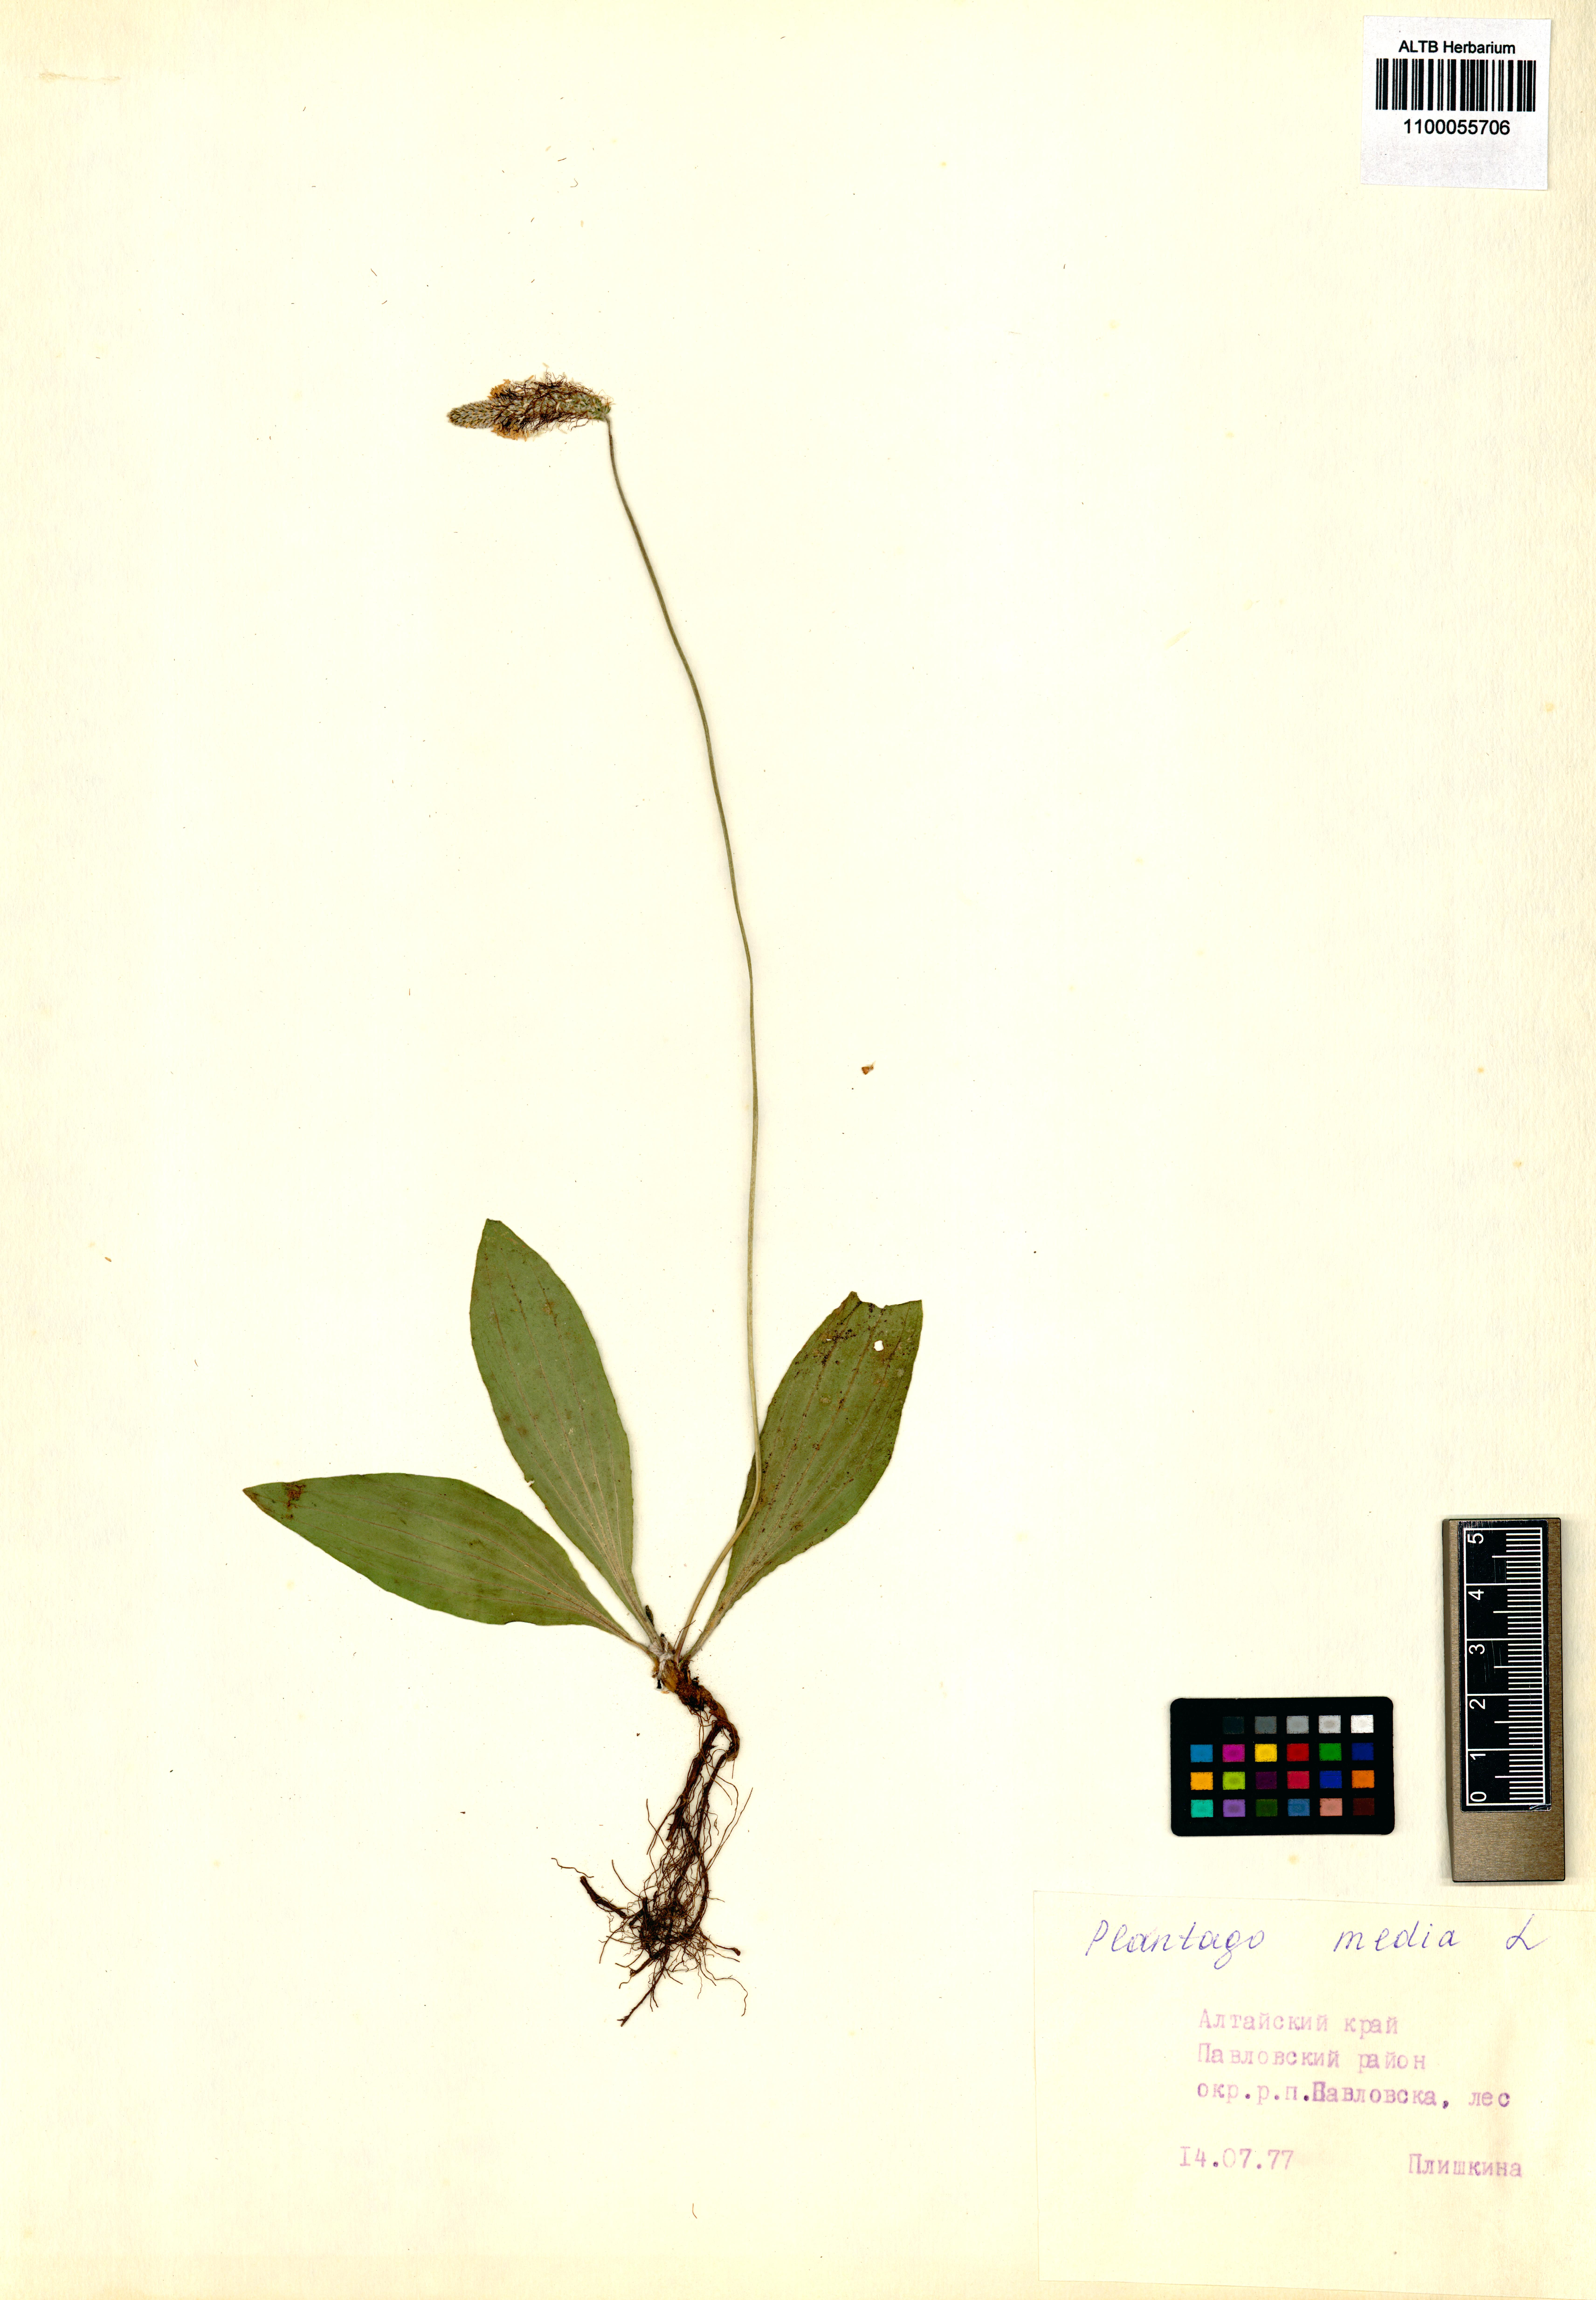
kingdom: Plantae
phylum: Tracheophyta
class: Magnoliopsida
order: Lamiales
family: Plantaginaceae
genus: Plantago
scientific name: Plantago media
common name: Hoary plantain
